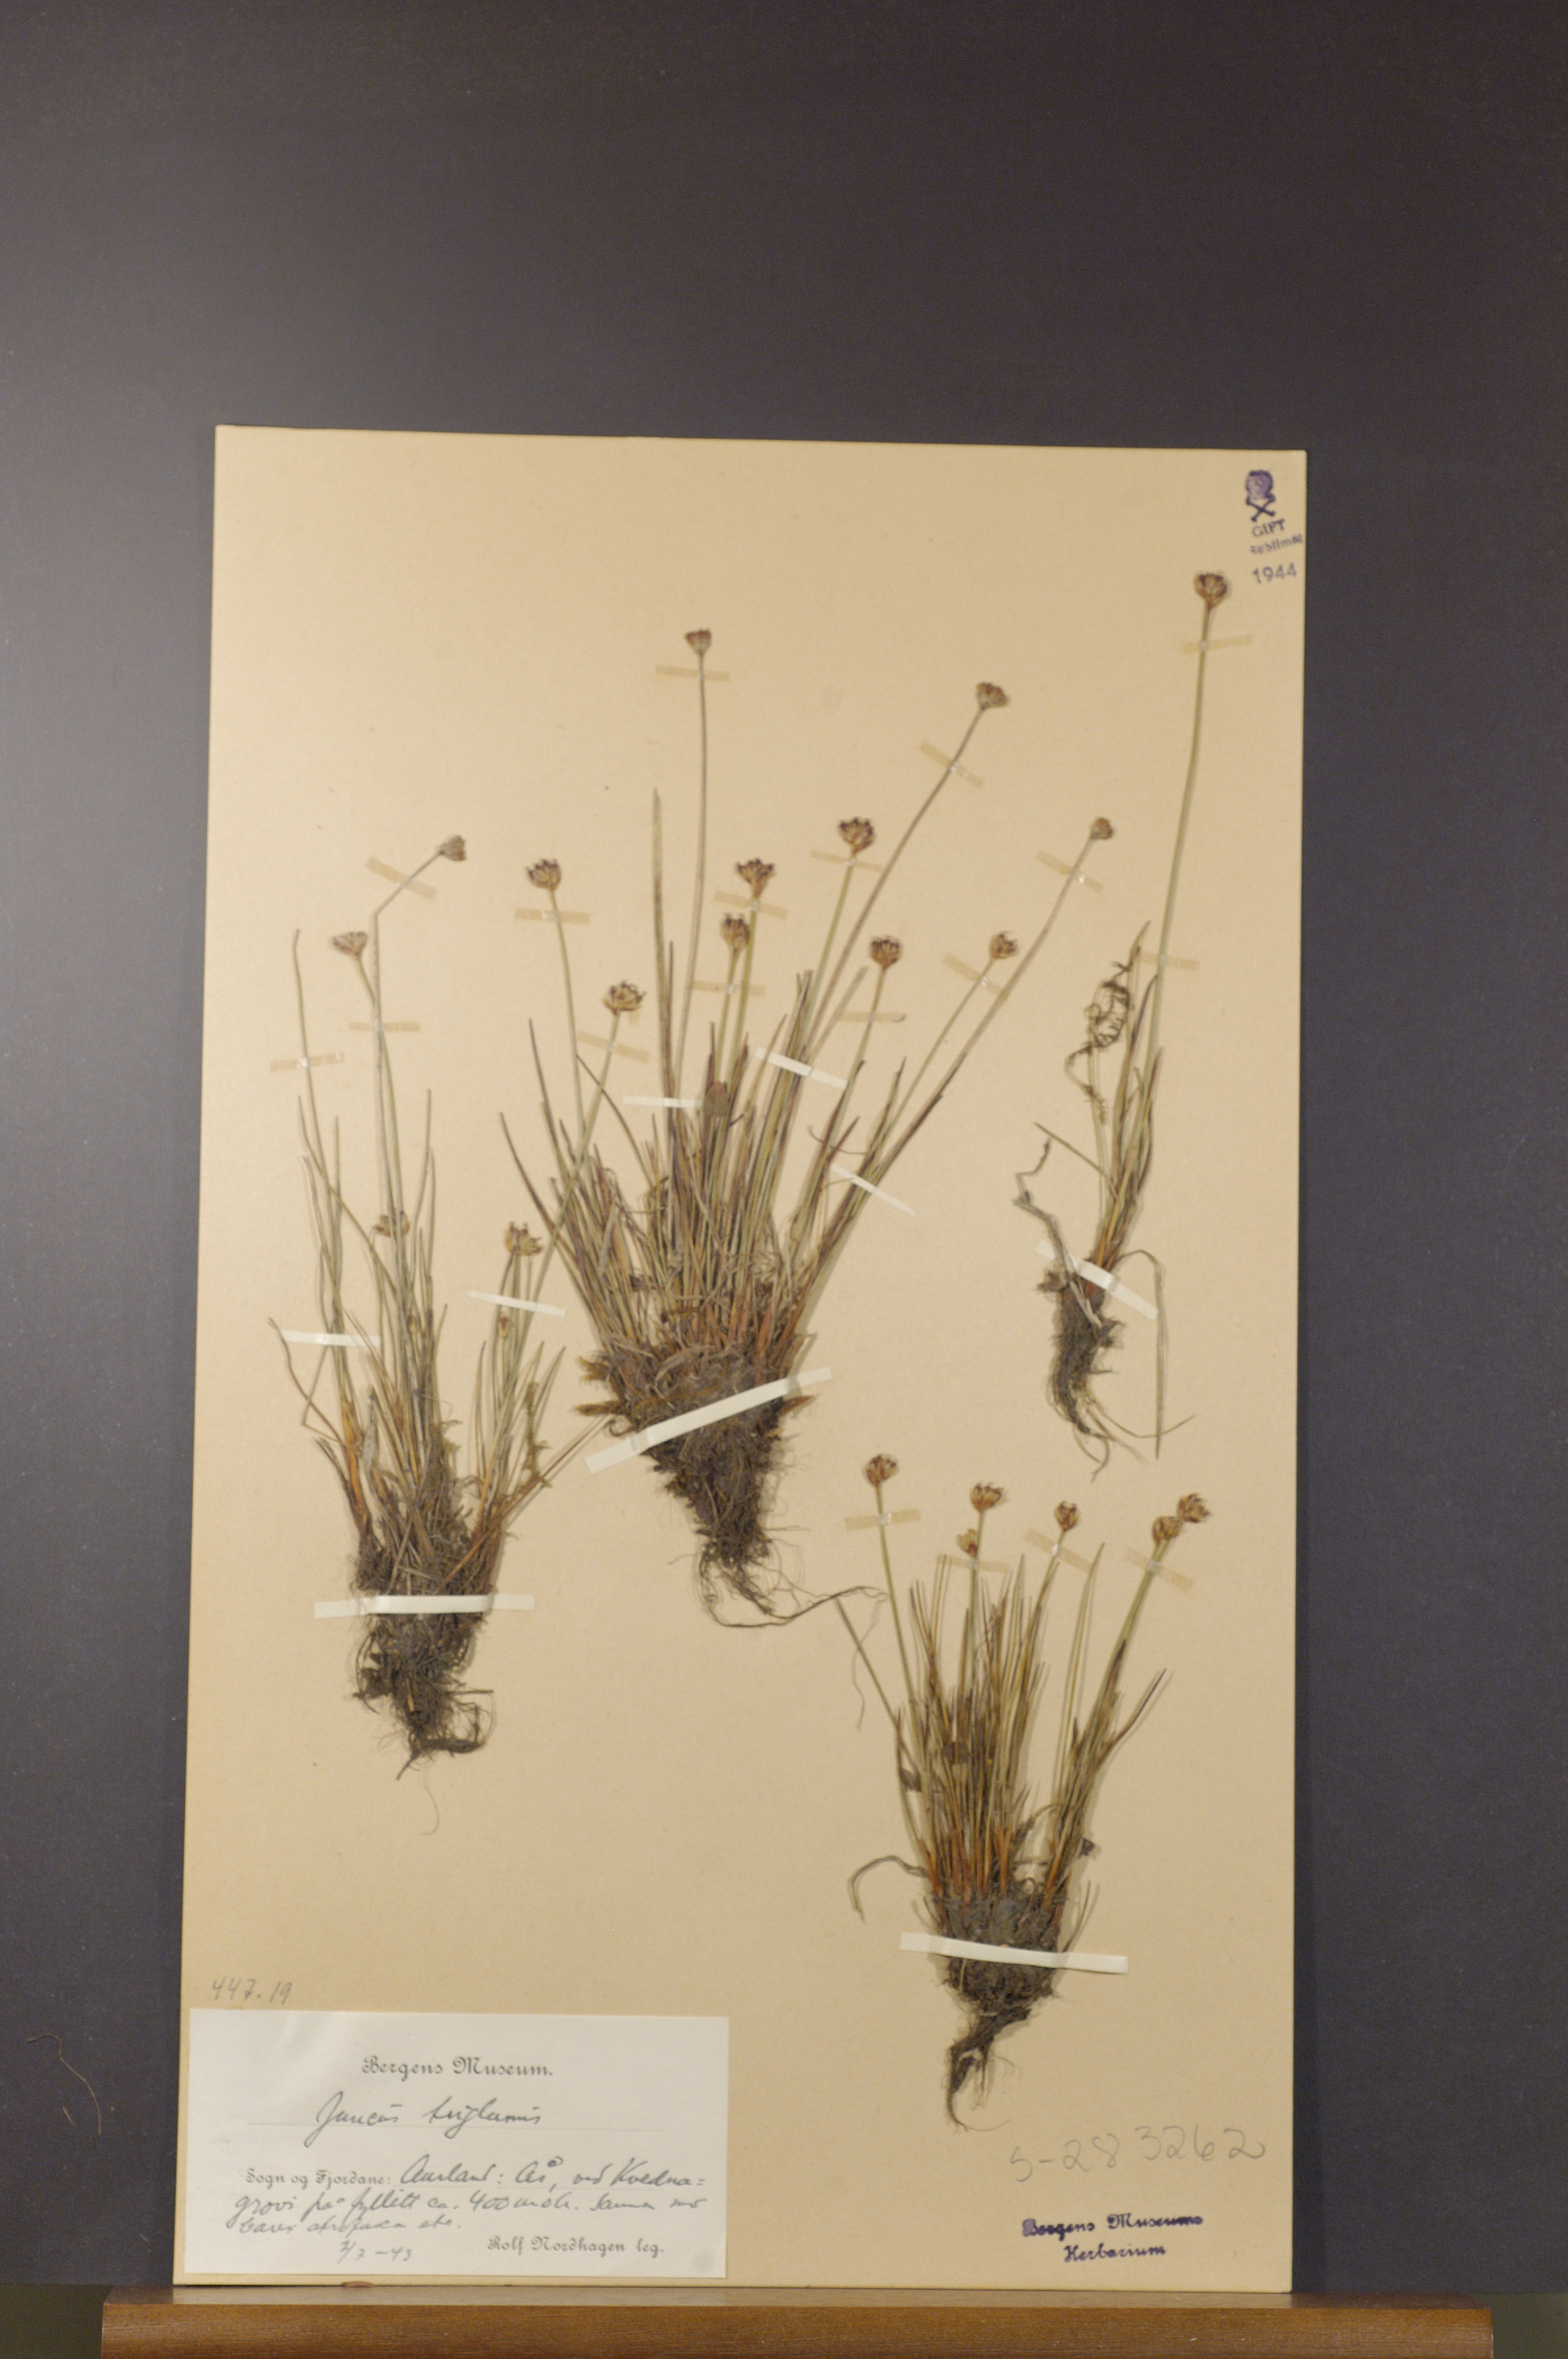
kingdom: Plantae
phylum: Tracheophyta
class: Liliopsida
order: Poales
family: Juncaceae
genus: Juncus
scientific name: Juncus triglumis
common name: Three-flowered rush
